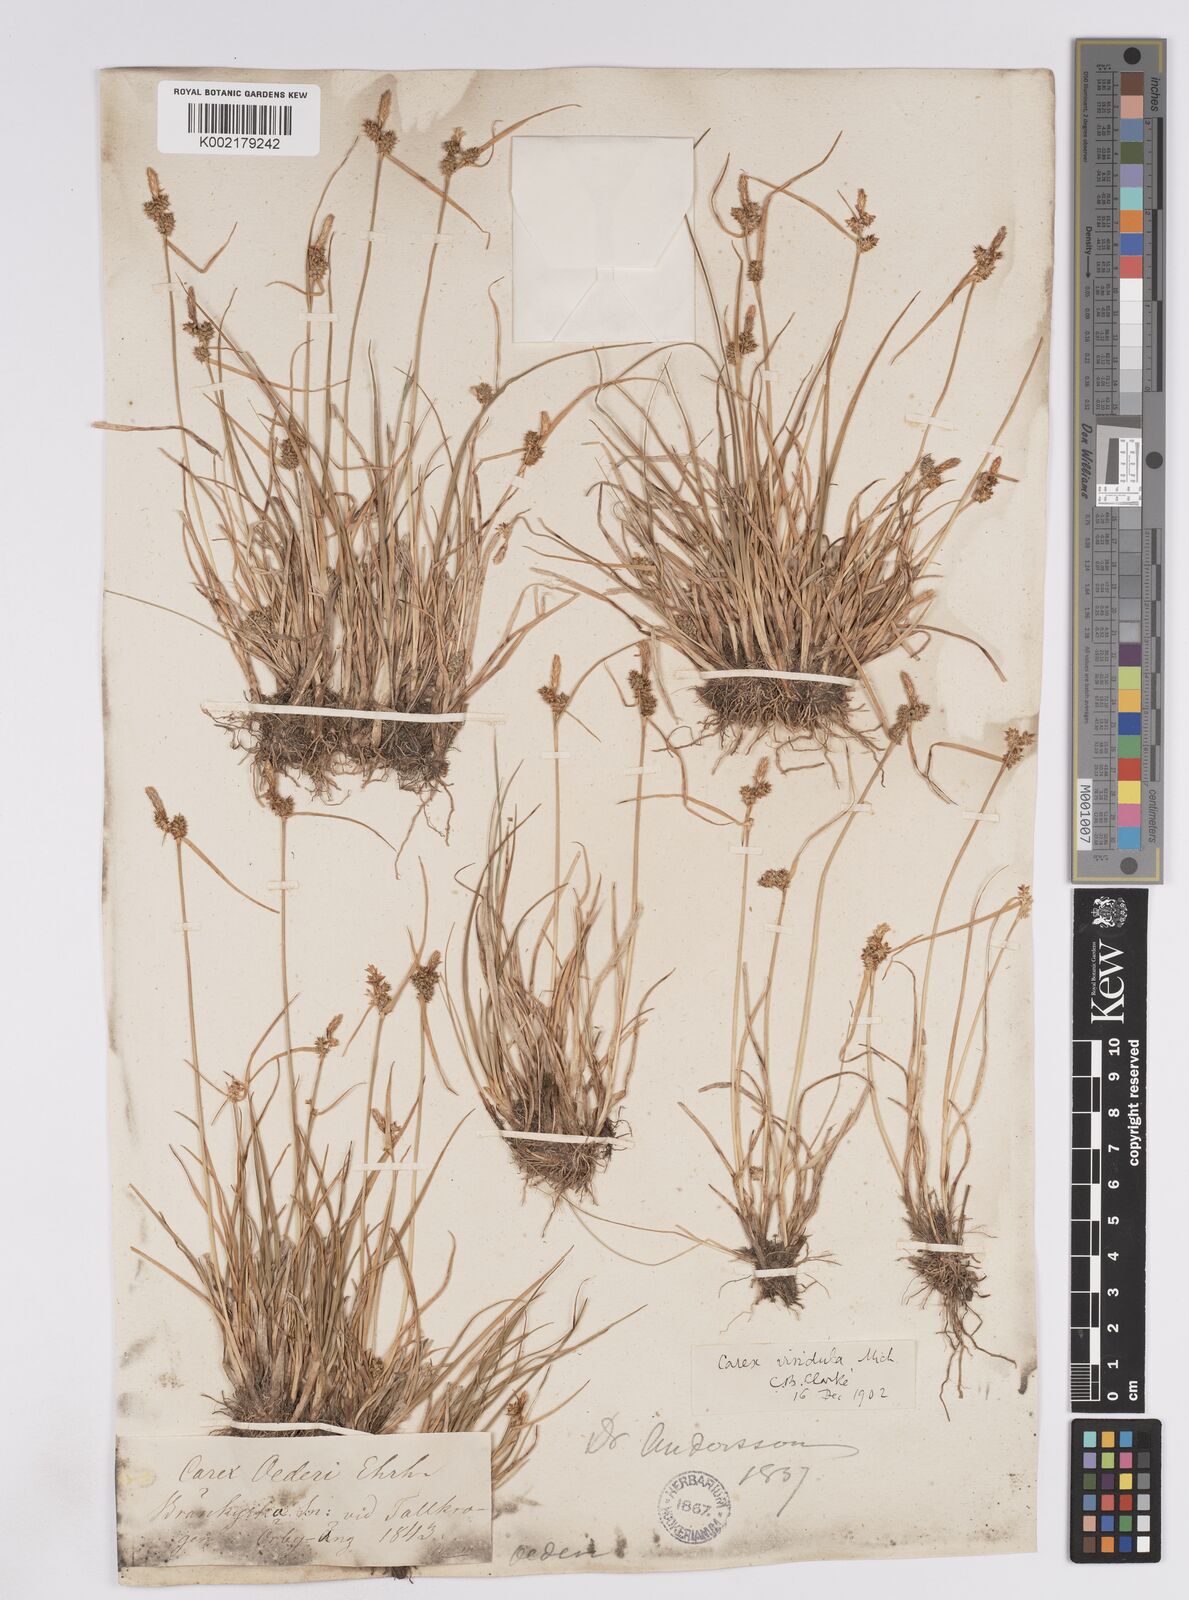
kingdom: Plantae
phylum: Tracheophyta
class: Liliopsida
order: Poales
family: Cyperaceae
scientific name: Cyperaceae
